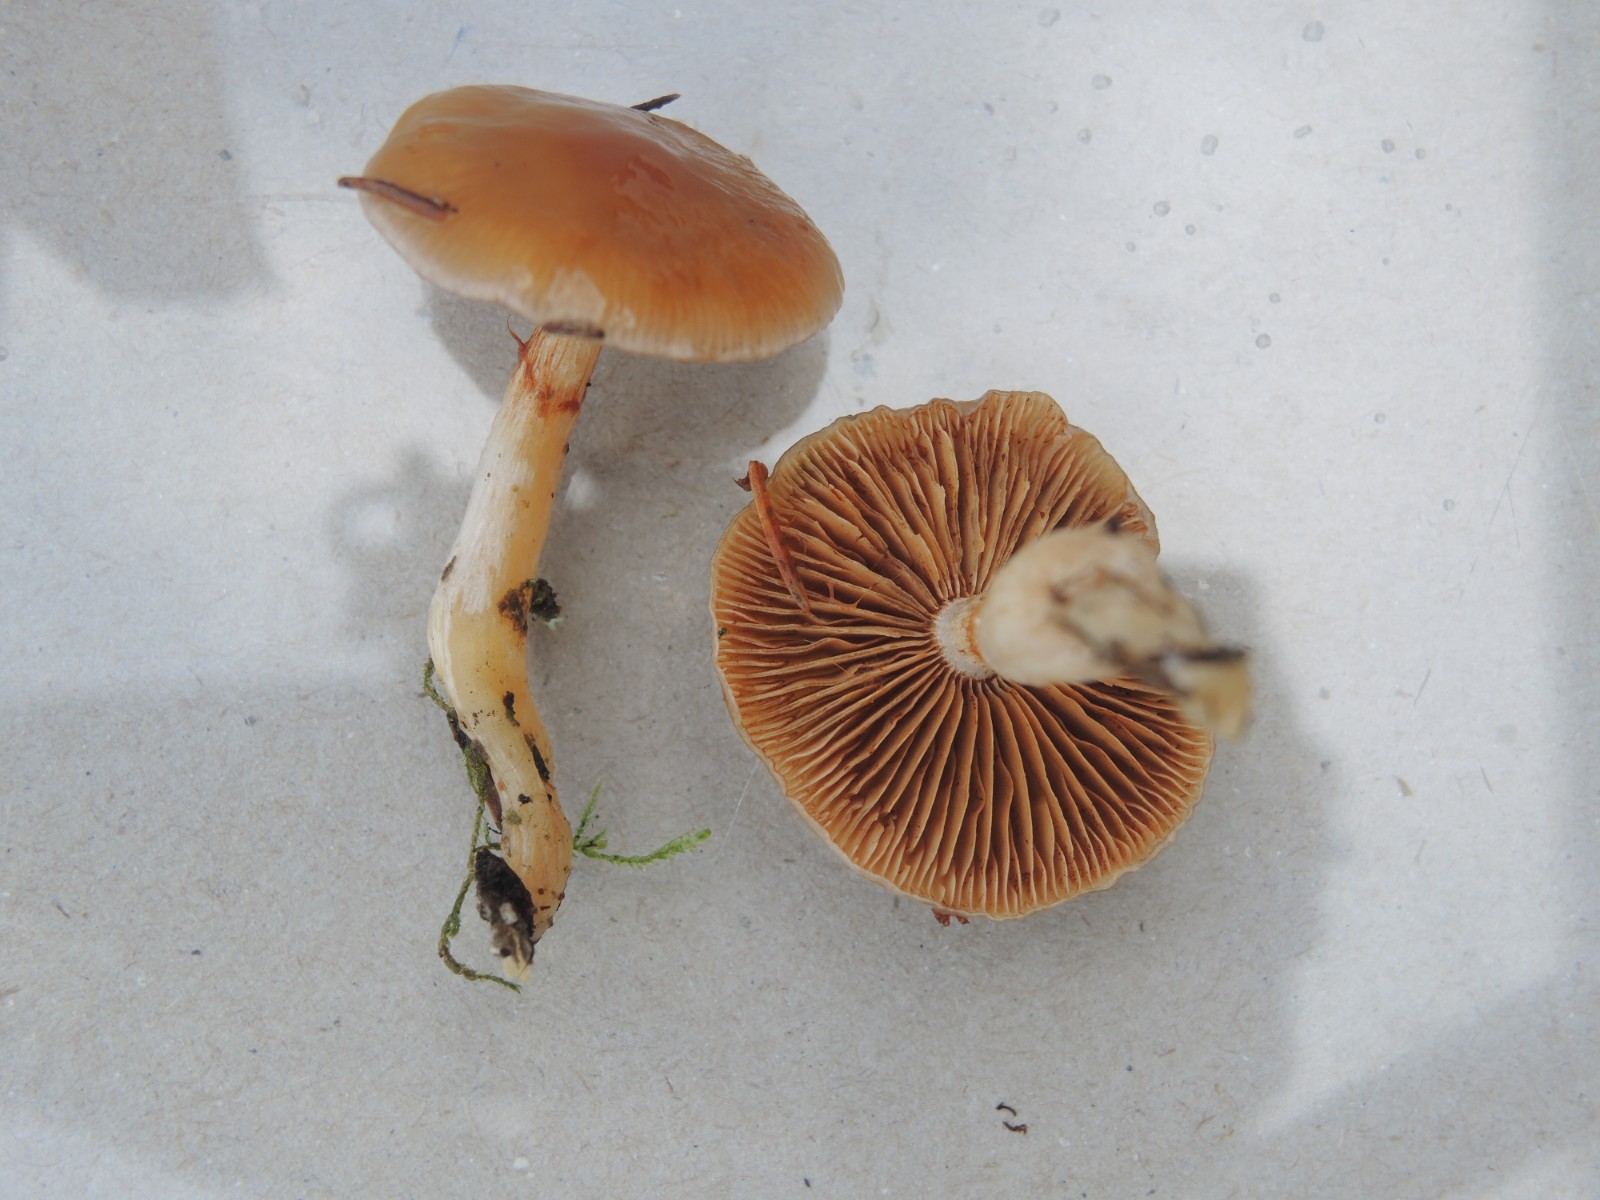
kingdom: Fungi
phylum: Basidiomycota
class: Agaricomycetes
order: Agaricales
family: Cortinariaceae
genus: Thaxterogaster
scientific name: Thaxterogaster pluvius
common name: hvidgul slørhat
